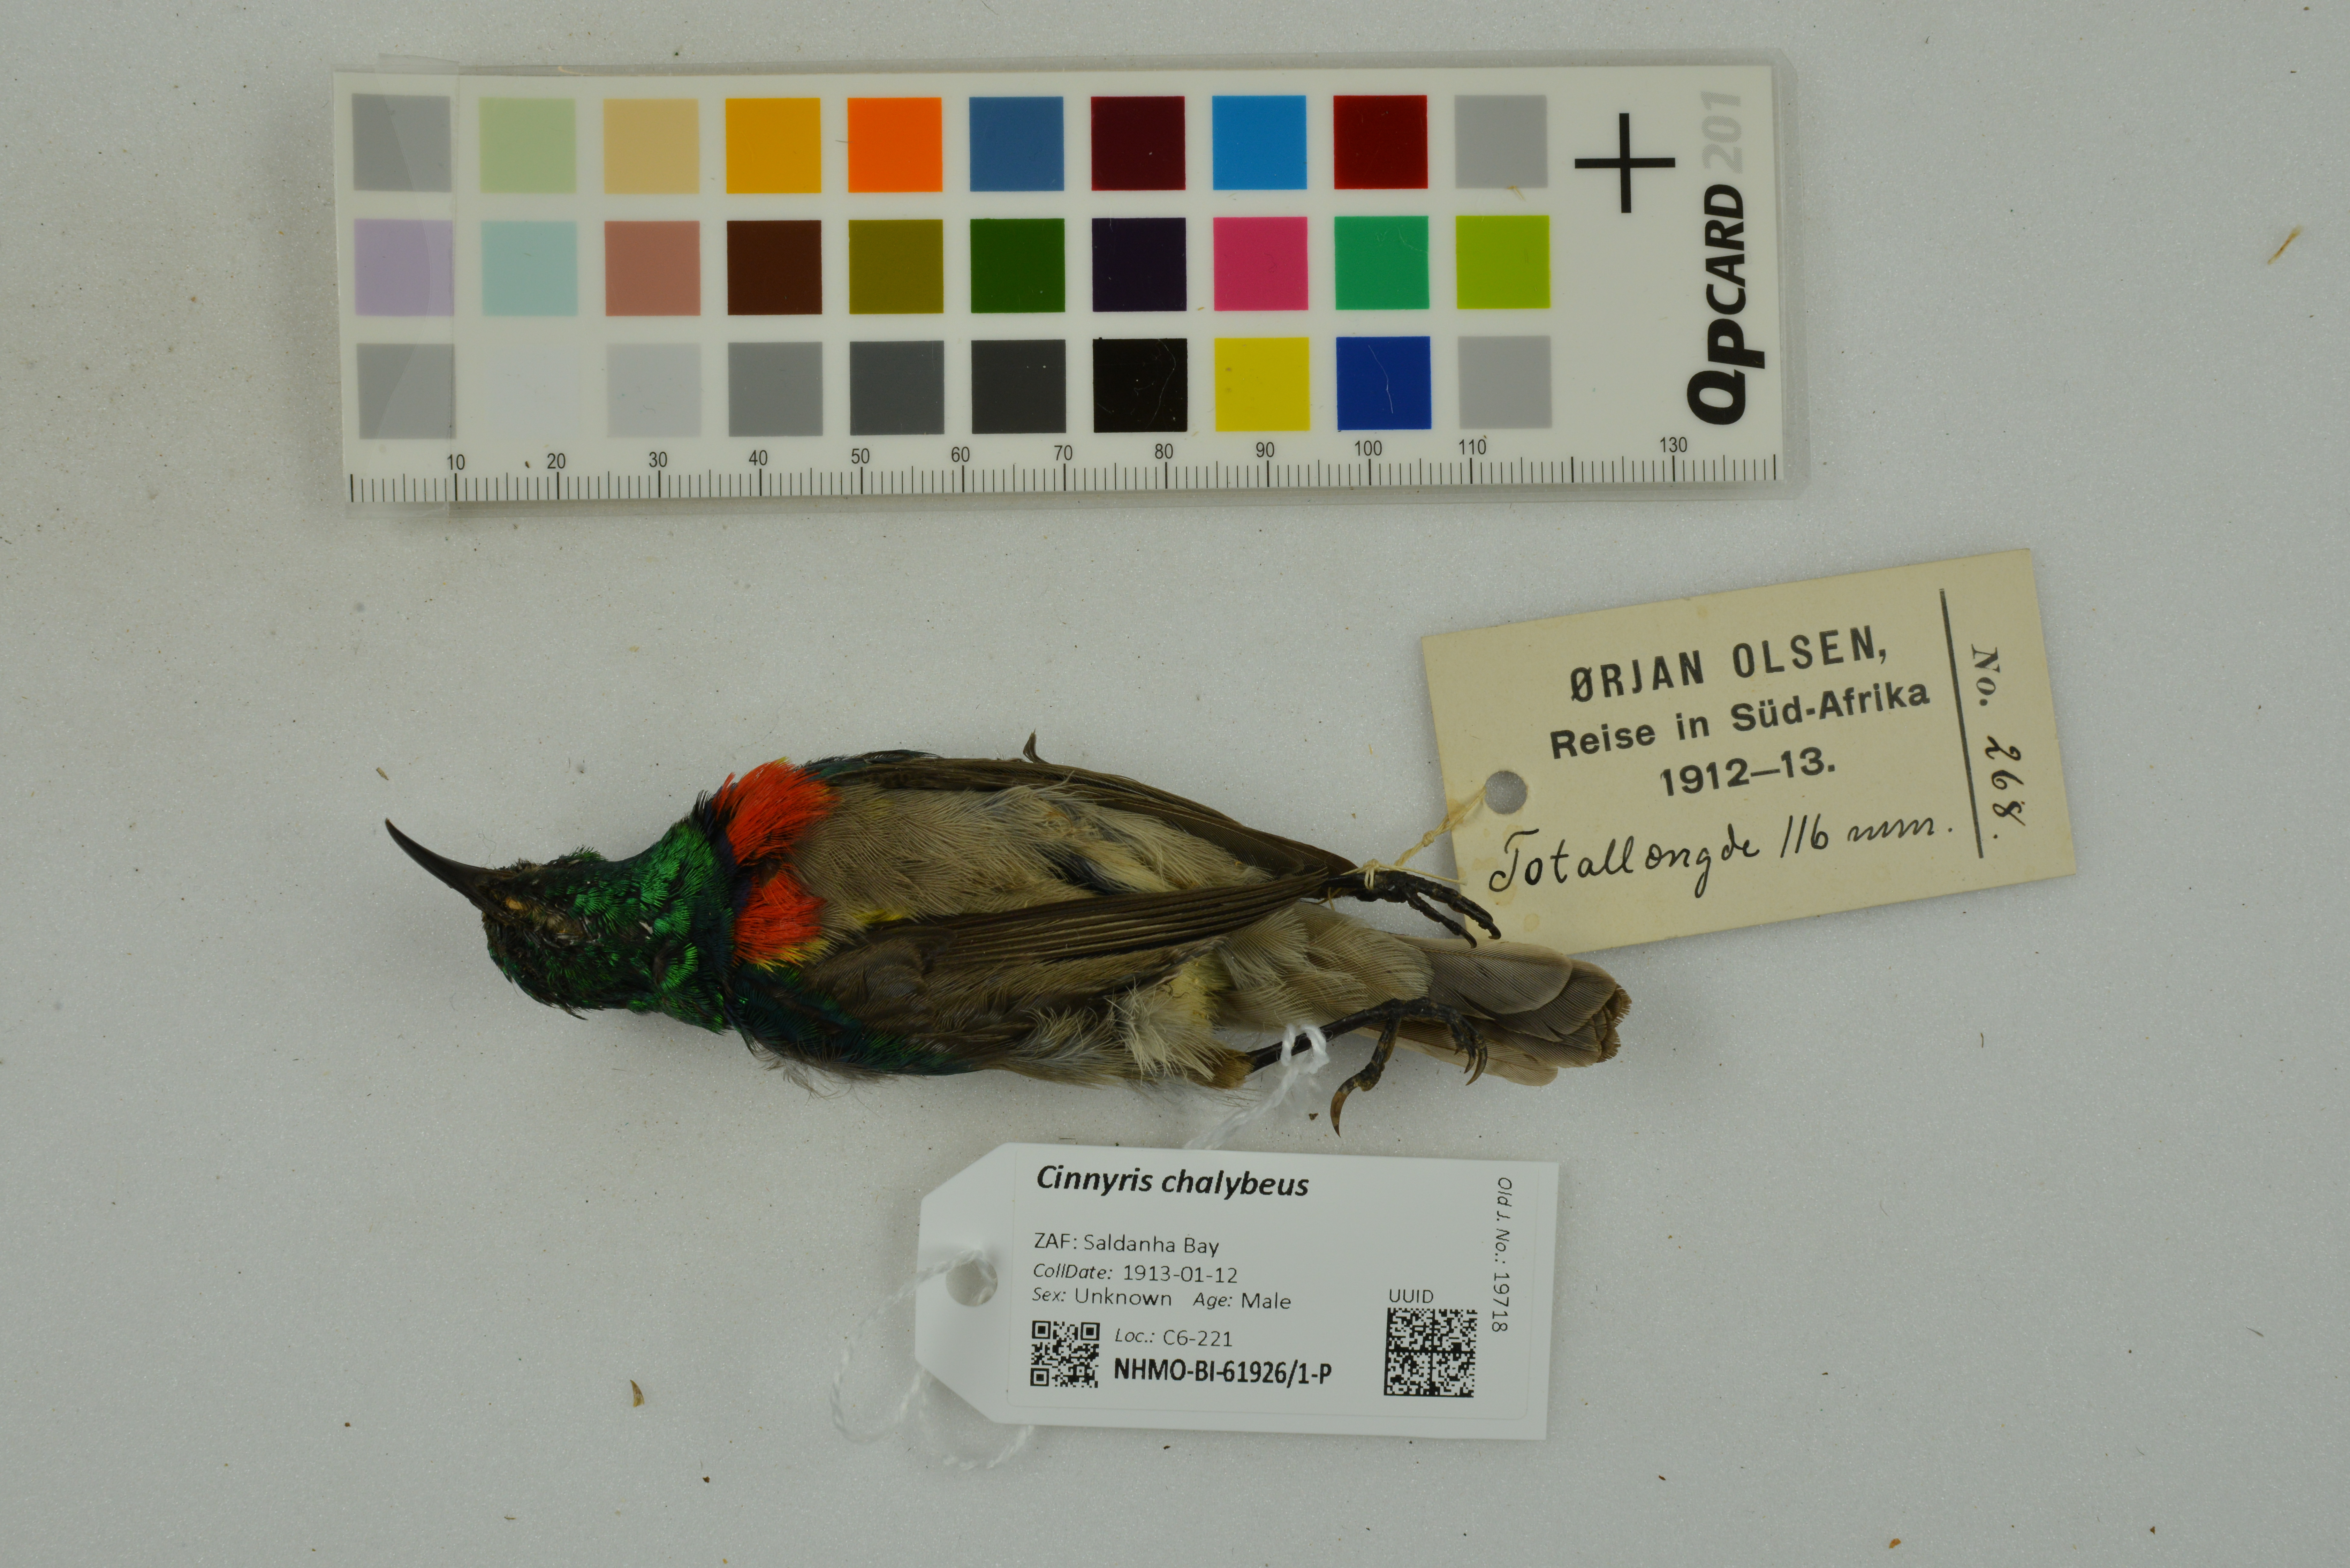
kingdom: Animalia
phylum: Chordata
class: Aves
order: Passeriformes
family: Nectariniidae
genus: Cinnyris
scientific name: Cinnyris chalybeus
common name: Southern double-collared sunbird
